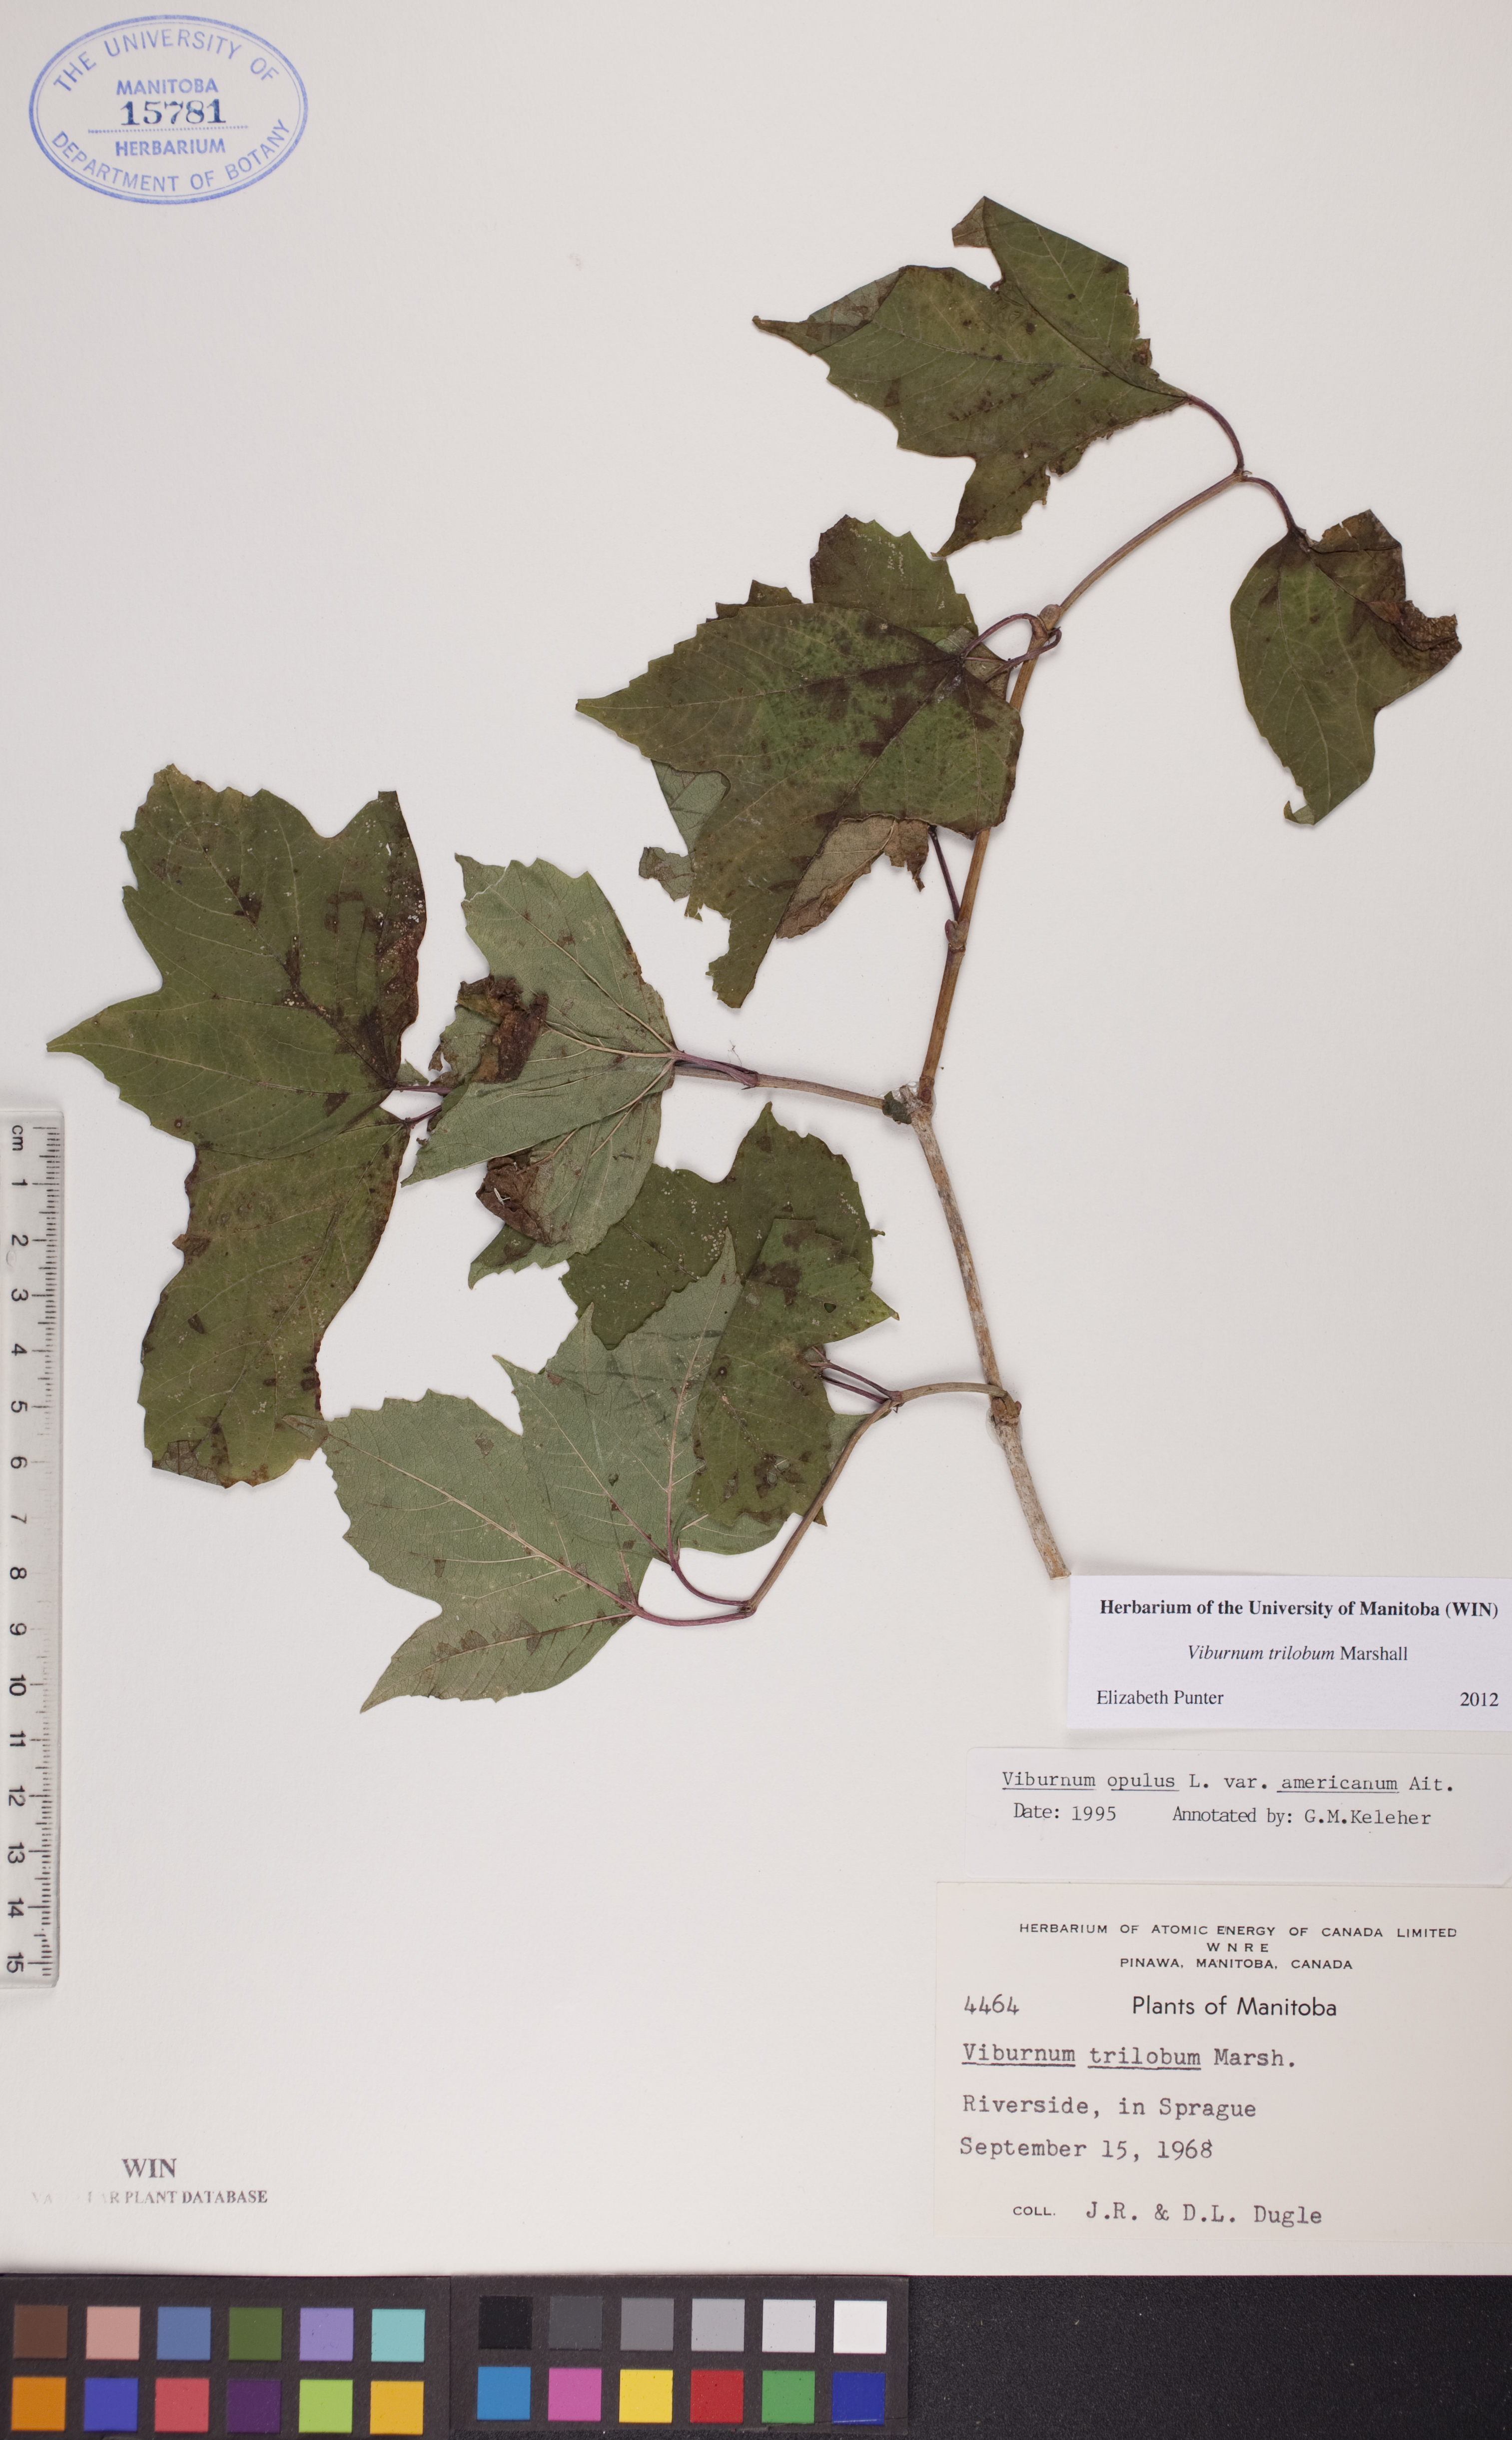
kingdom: Plantae
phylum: Tracheophyta
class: Magnoliopsida
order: Dipsacales
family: Viburnaceae
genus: Viburnum
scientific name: Viburnum trilobum
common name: American cranberrybush
